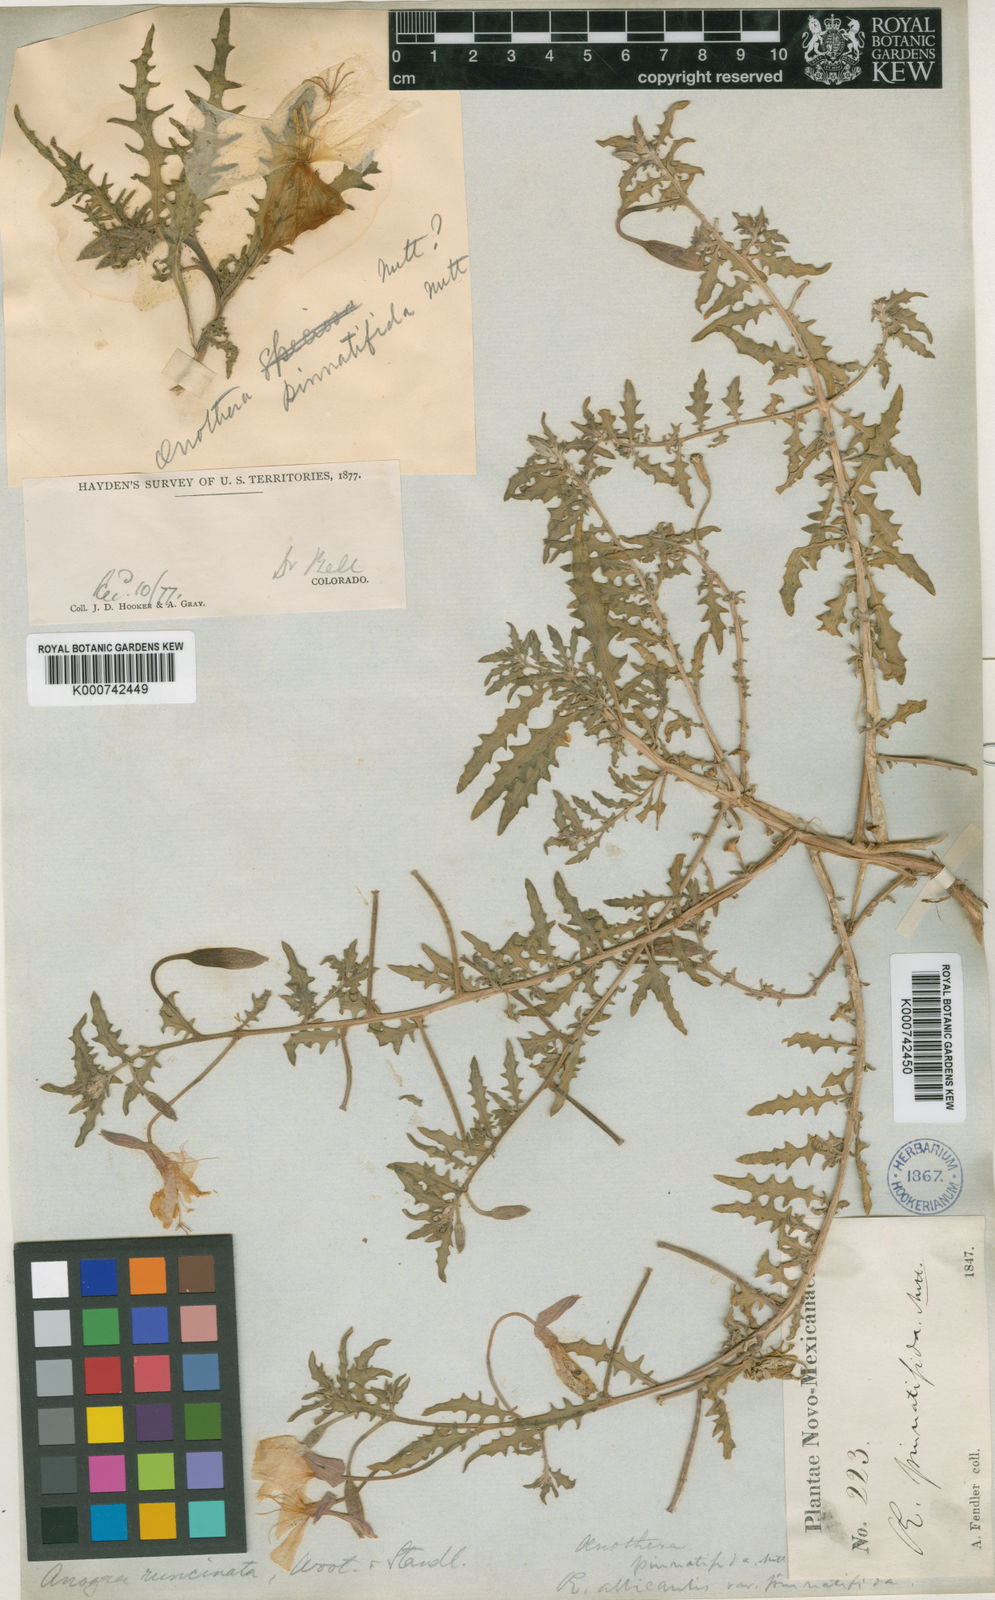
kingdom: Plantae
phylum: Tracheophyta
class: Magnoliopsida
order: Myrtales
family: Onagraceae
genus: Oenothera
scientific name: Oenothera pallida
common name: Pale evening-primrose
